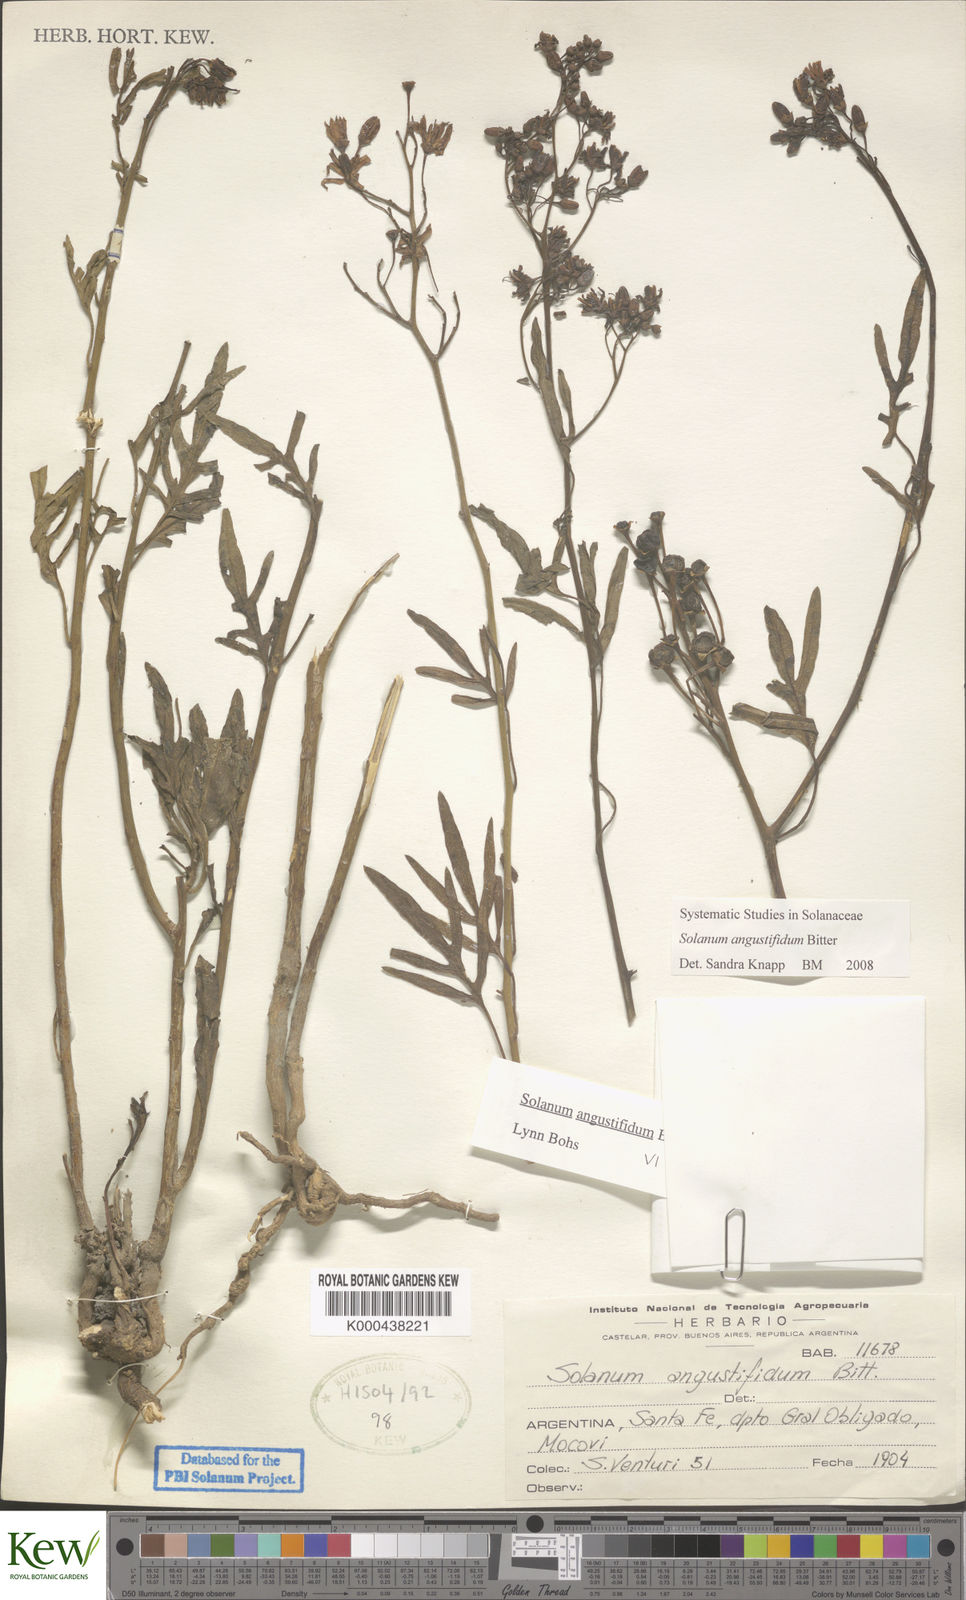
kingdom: Plantae
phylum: Tracheophyta
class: Magnoliopsida
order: Solanales
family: Solanaceae
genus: Solanum
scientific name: Solanum angustifidum
